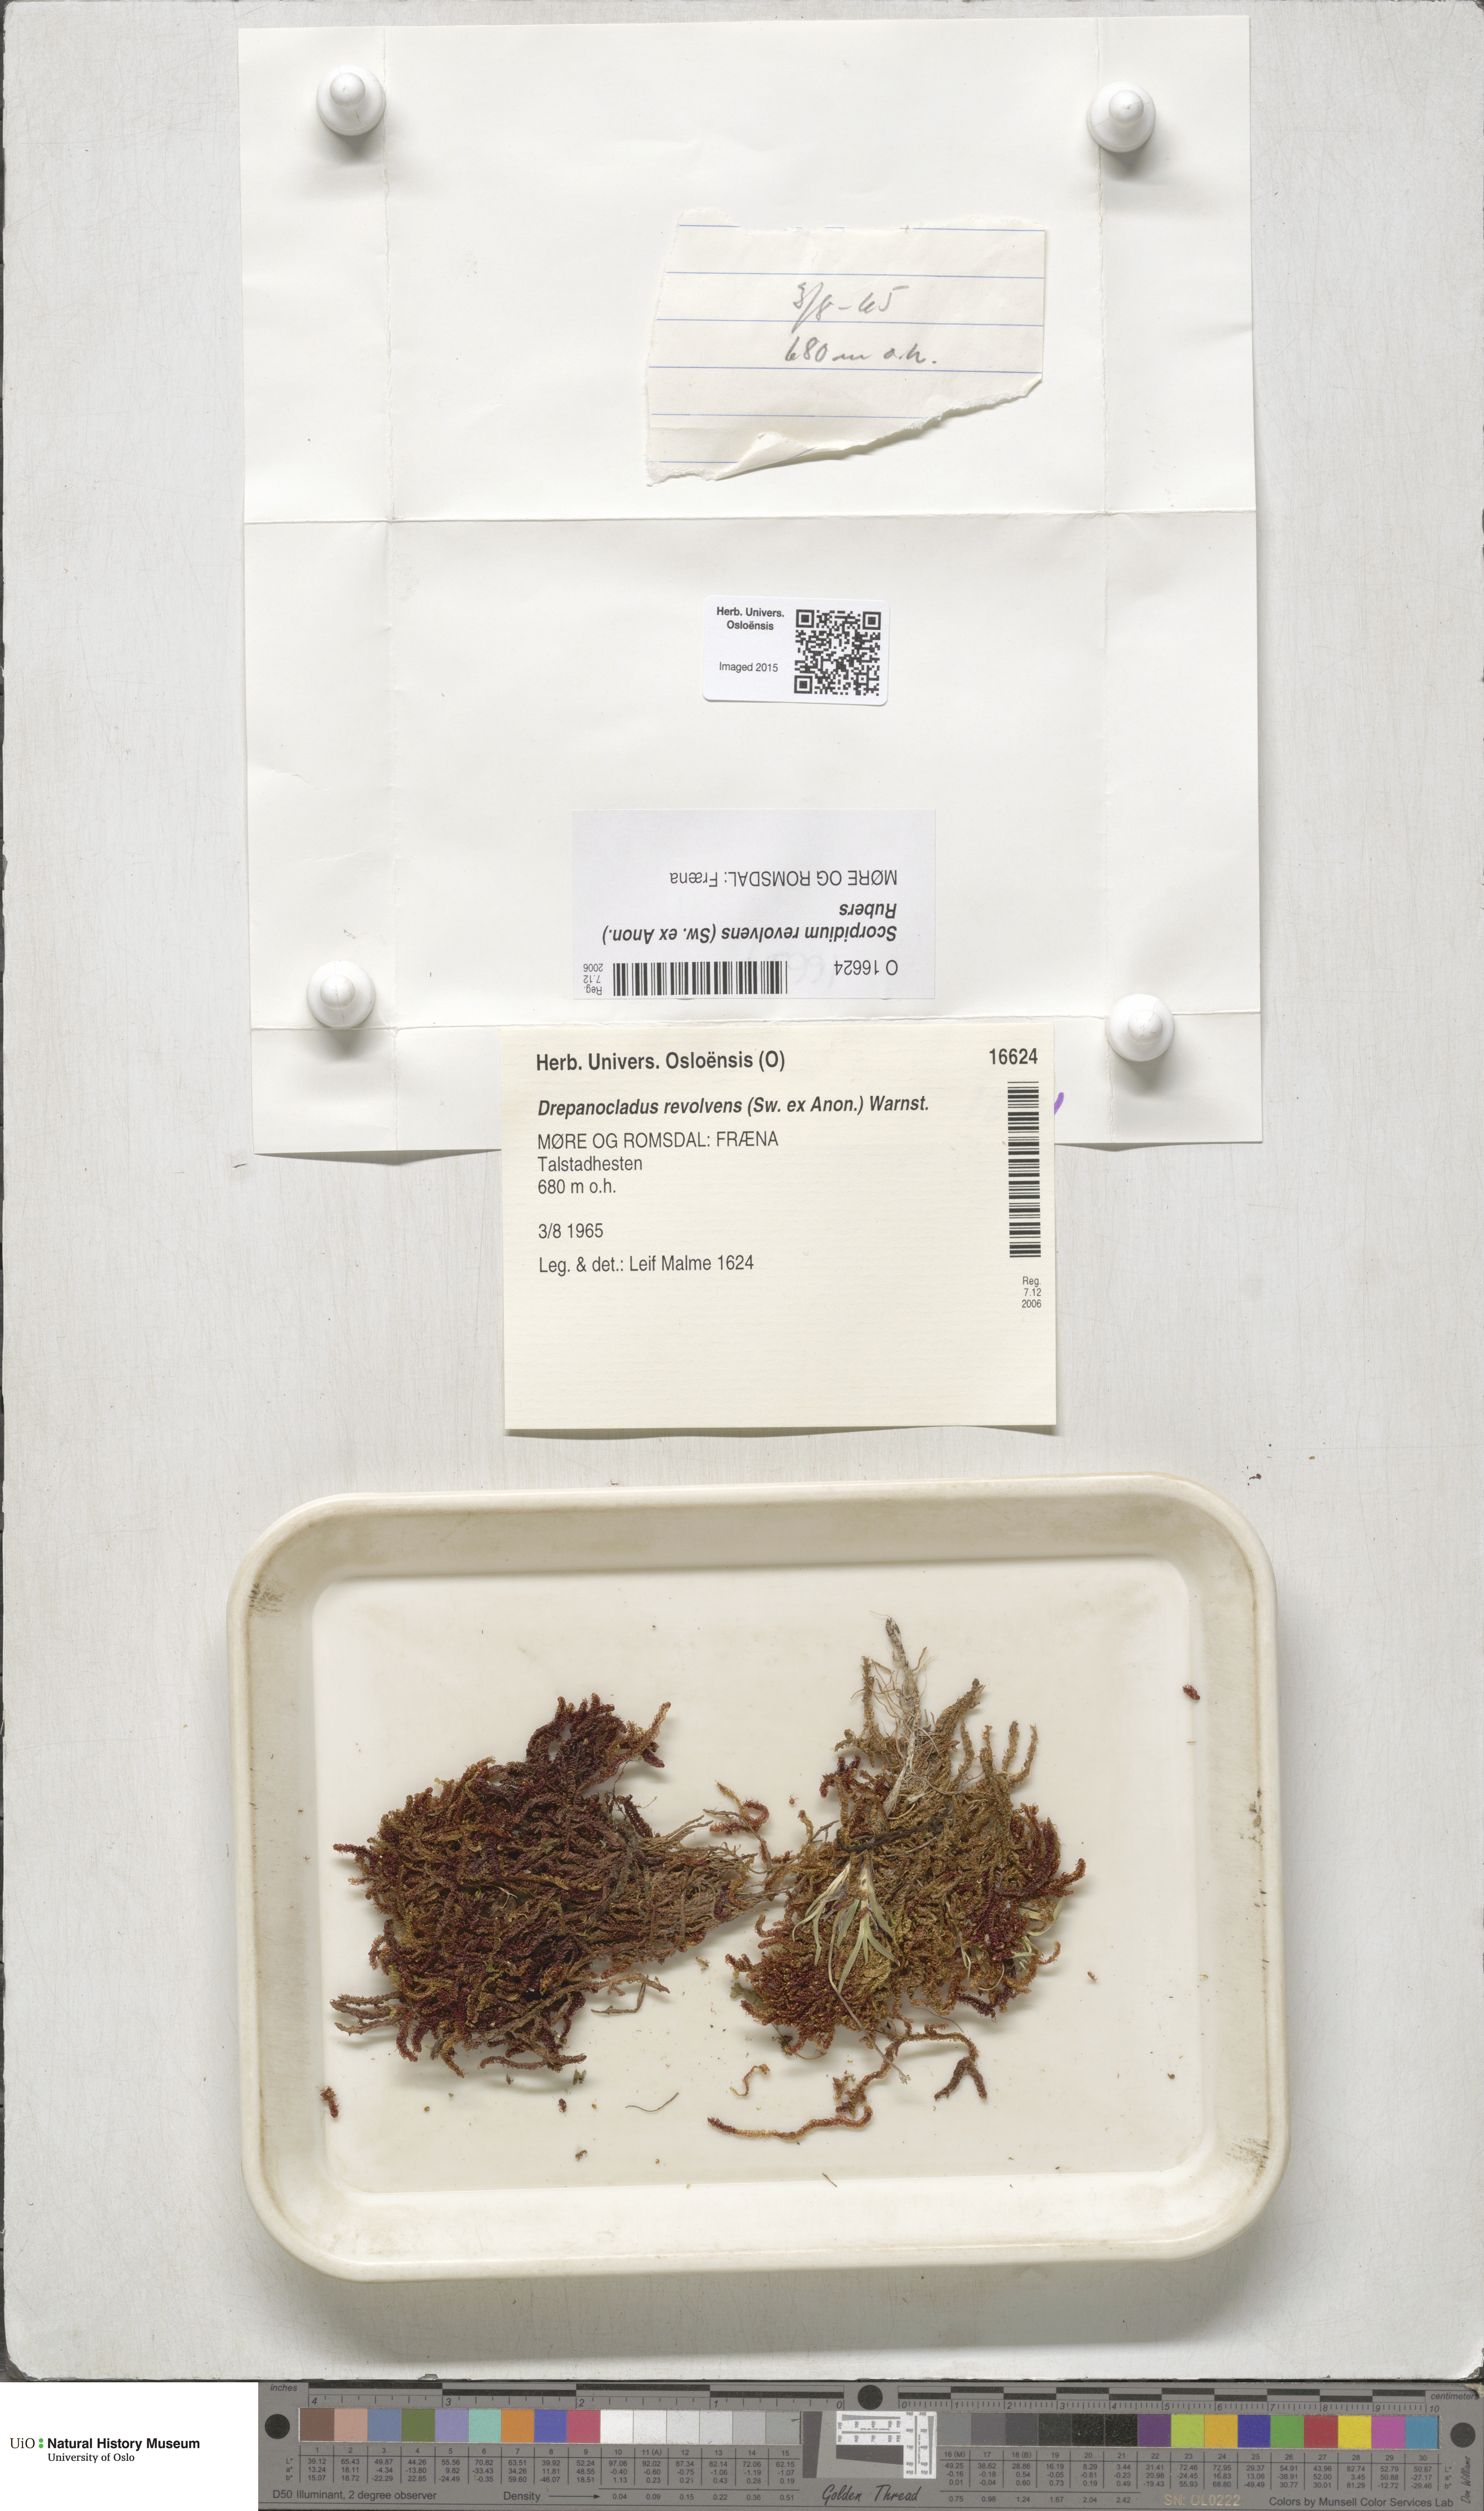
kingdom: Plantae
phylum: Bryophyta
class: Bryopsida
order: Hypnales
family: Scorpidiaceae
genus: Scorpidium
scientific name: Scorpidium revolvens
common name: Rusty hook moss
